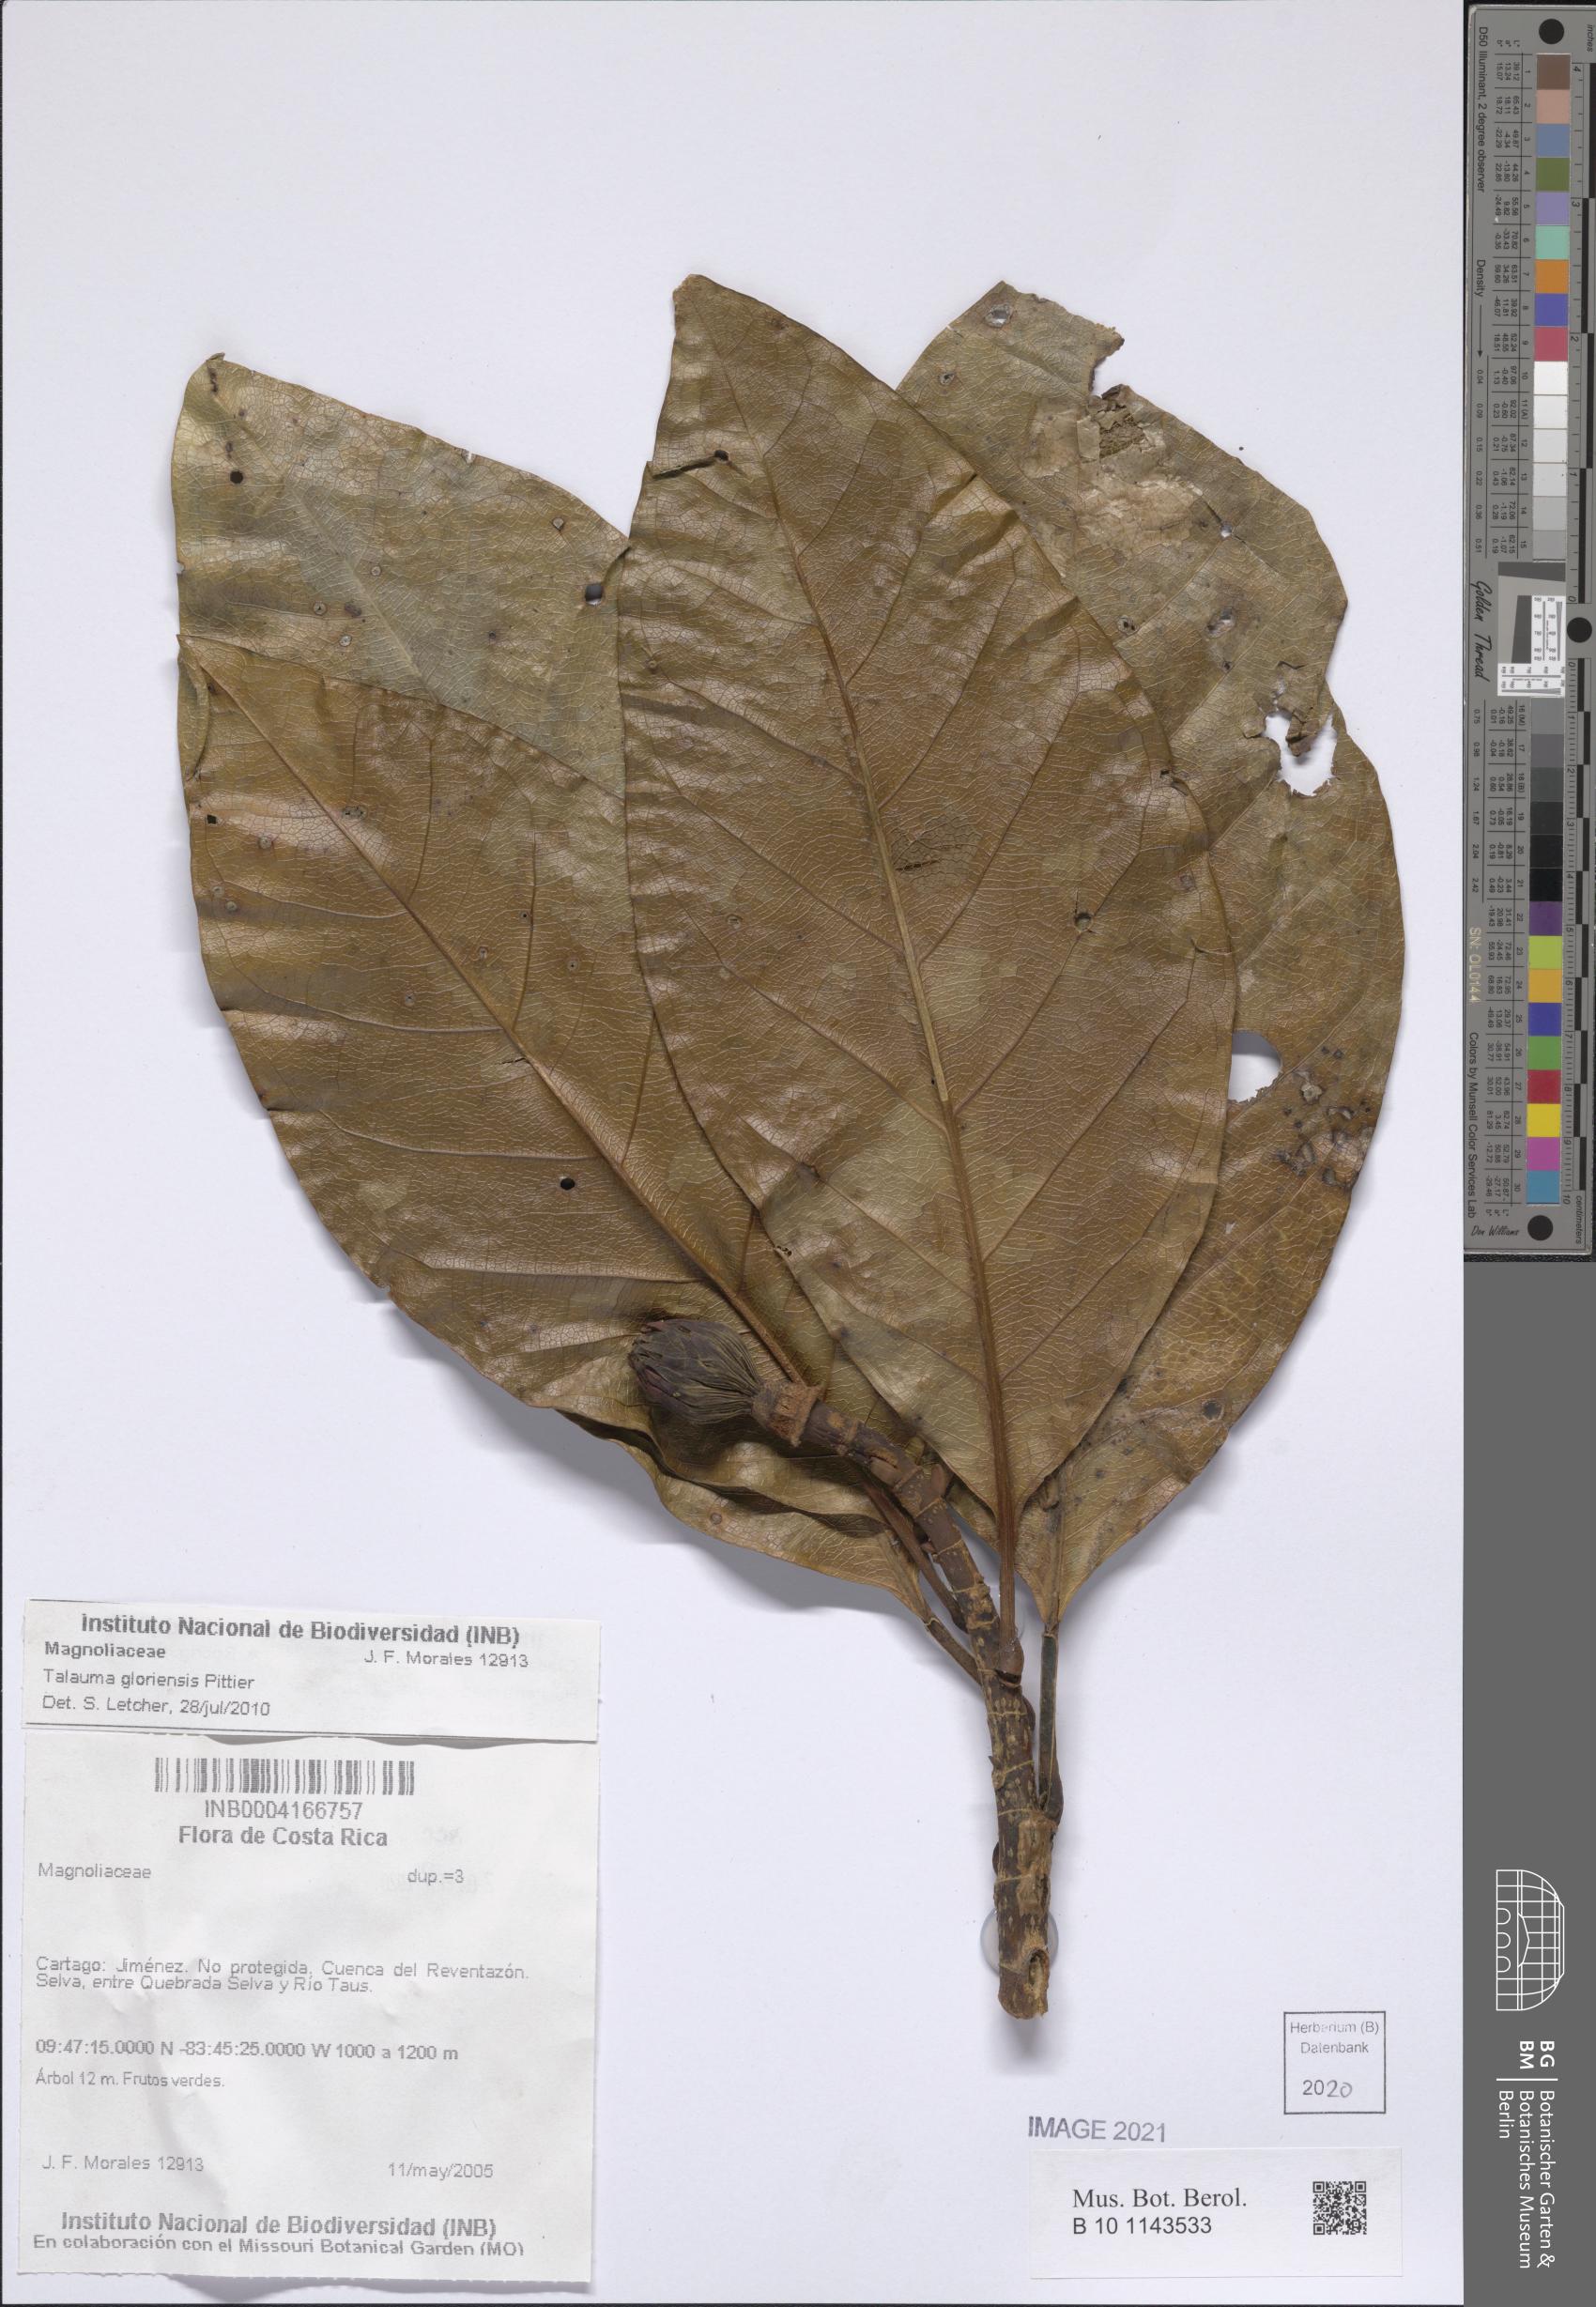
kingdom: Plantae
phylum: Tracheophyta
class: Magnoliopsida
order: Magnoliales
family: Magnoliaceae
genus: Magnolia
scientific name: Magnolia gloriensis
